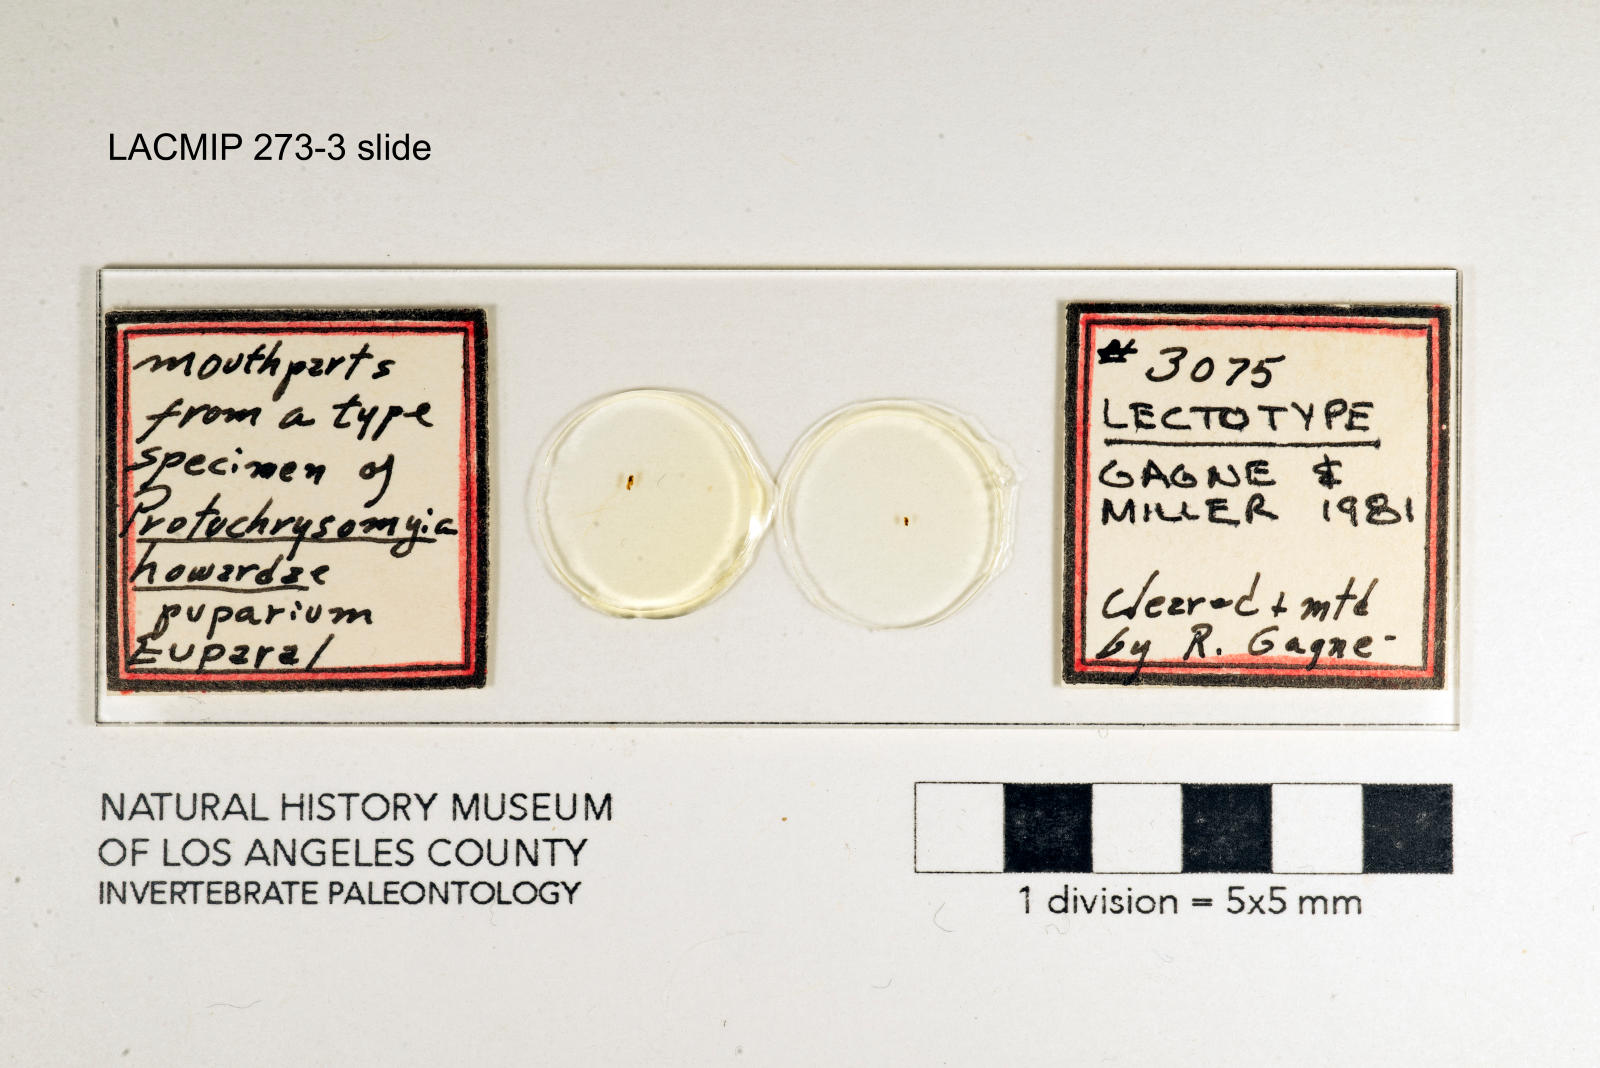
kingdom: Animalia
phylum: Arthropoda
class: Insecta
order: Diptera
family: Calliphoridae
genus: Cochliomyia
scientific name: Cochliomyia macellaria
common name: Secondary screwworm
